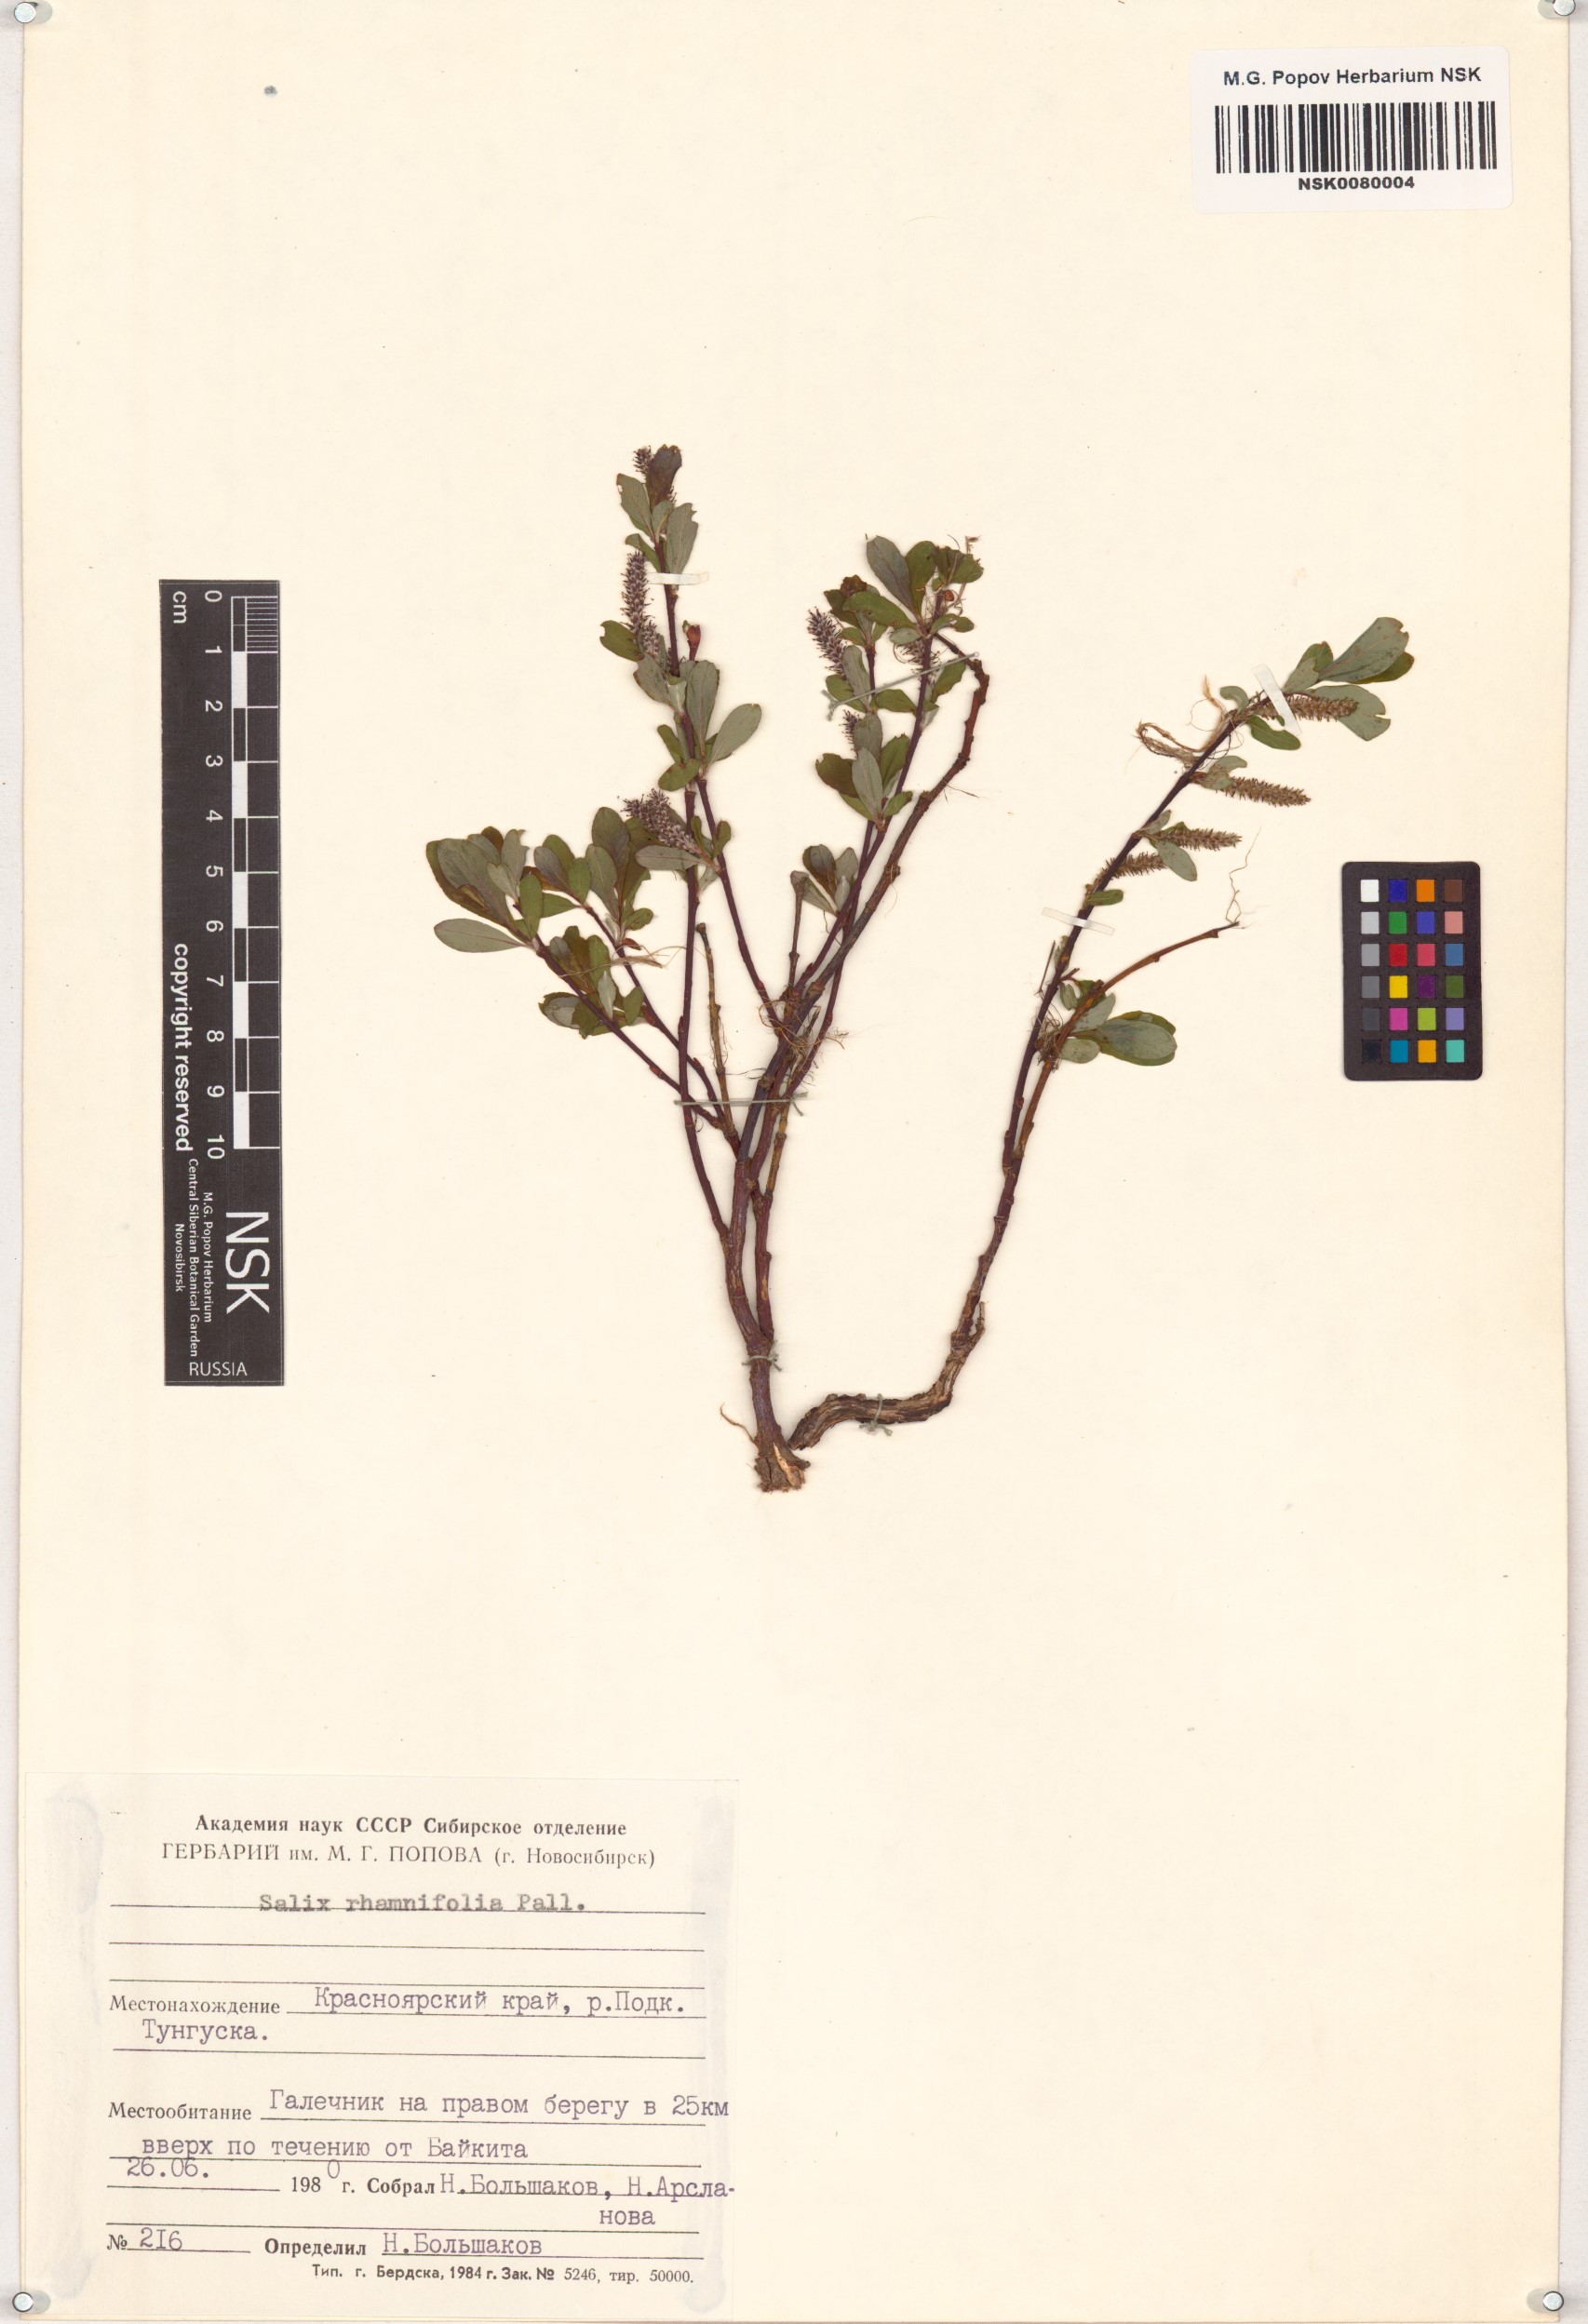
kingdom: Plantae
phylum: Tracheophyta
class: Magnoliopsida
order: Malpighiales
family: Salicaceae
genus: Salix
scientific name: Salix rhamnifolia
